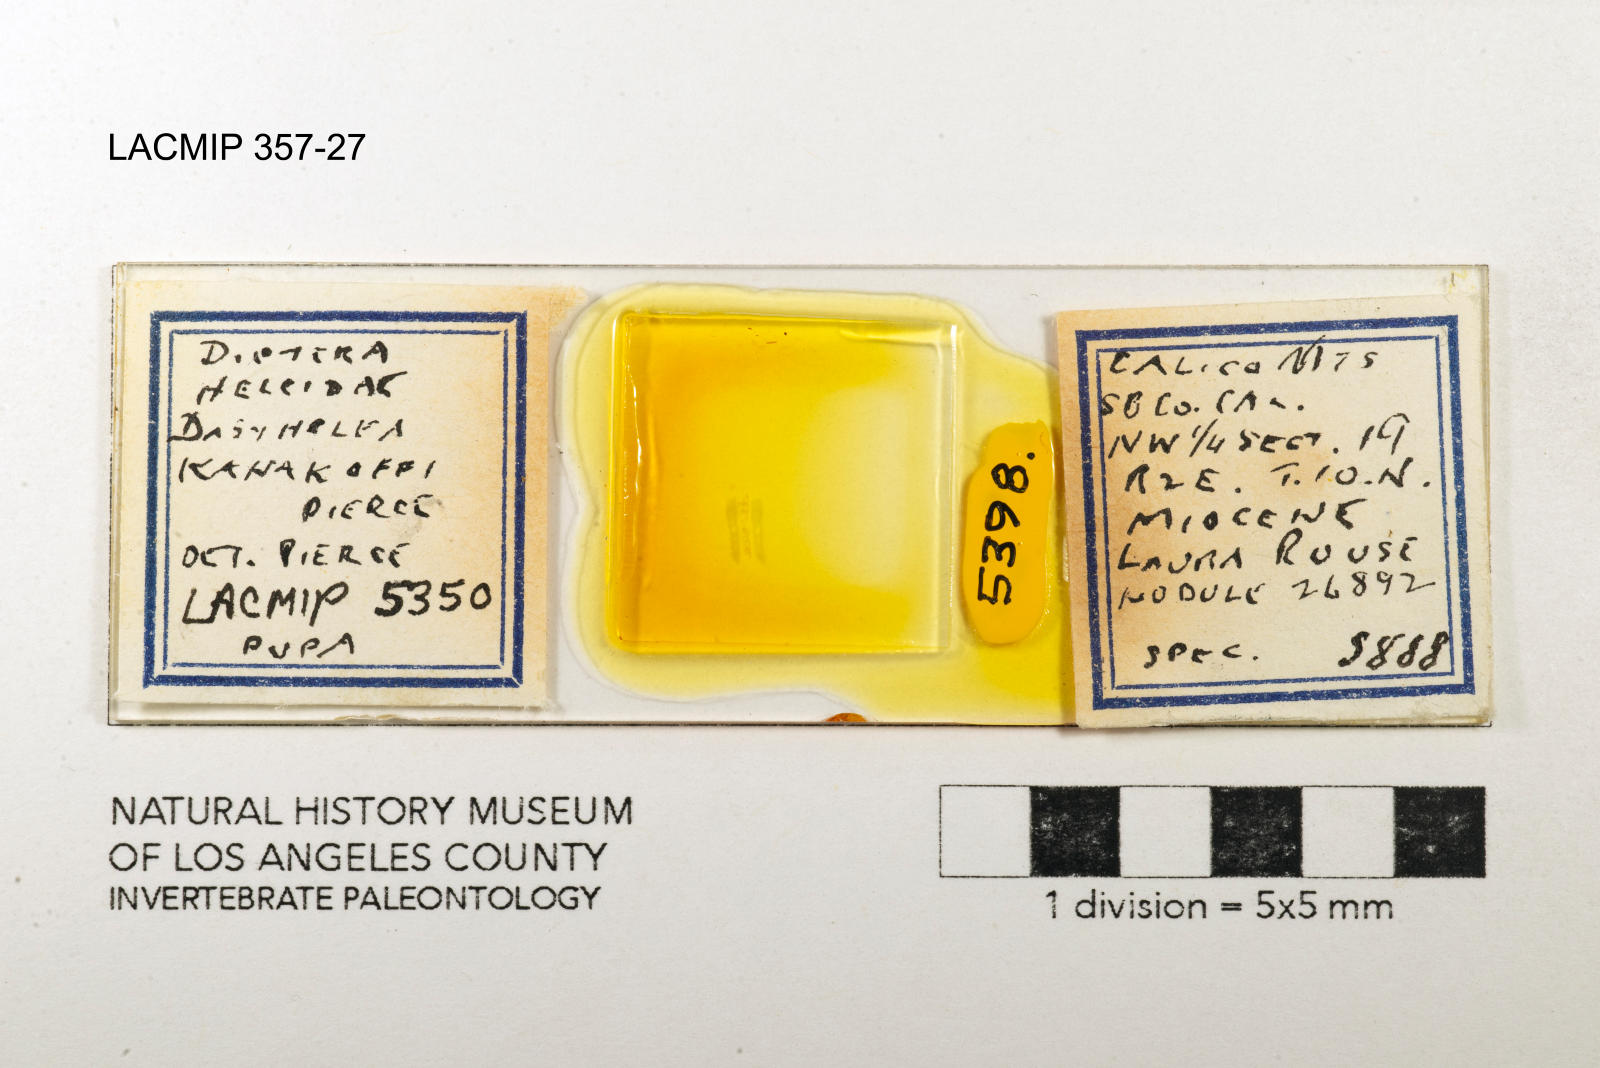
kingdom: Animalia
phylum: Arthropoda
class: Insecta
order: Diptera
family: Ceratopogonidae
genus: Dasyhelea
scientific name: Dasyhelea kanakoffi
